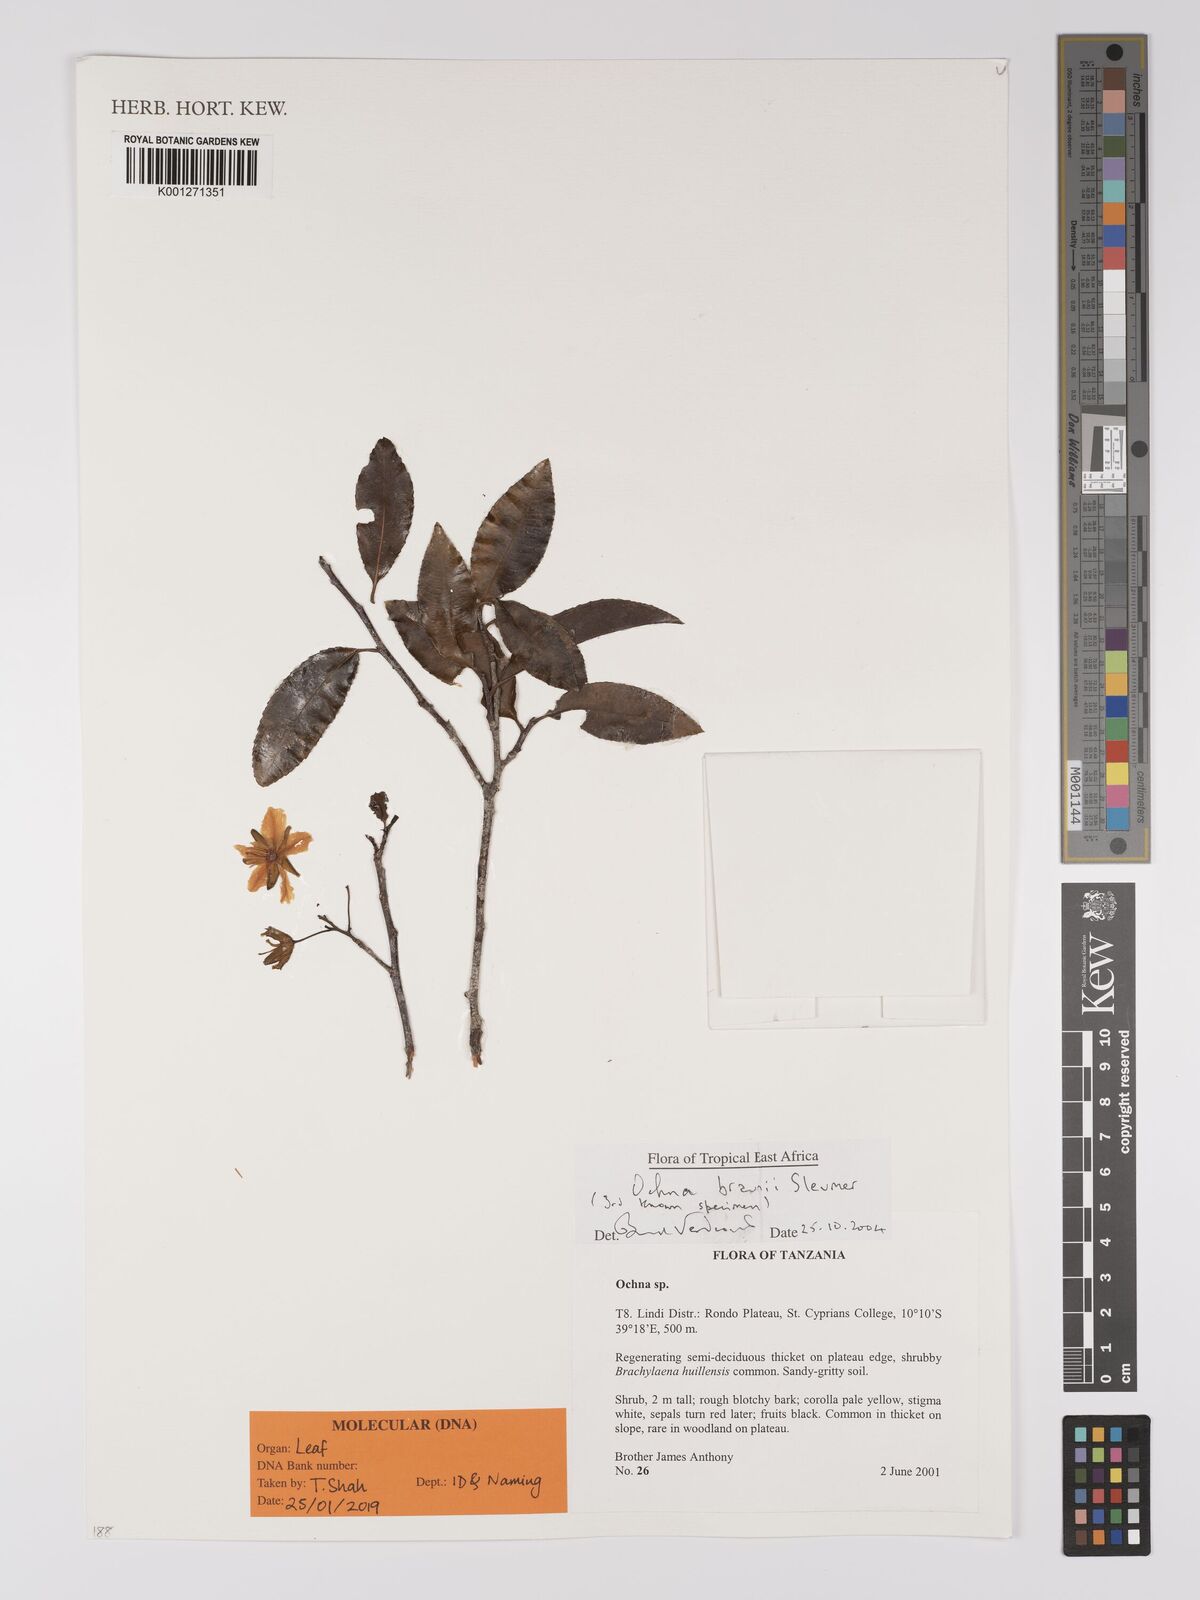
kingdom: Plantae
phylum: Tracheophyta
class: Magnoliopsida
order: Malpighiales
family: Ochnaceae
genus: Ochna
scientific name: Ochna braunii
